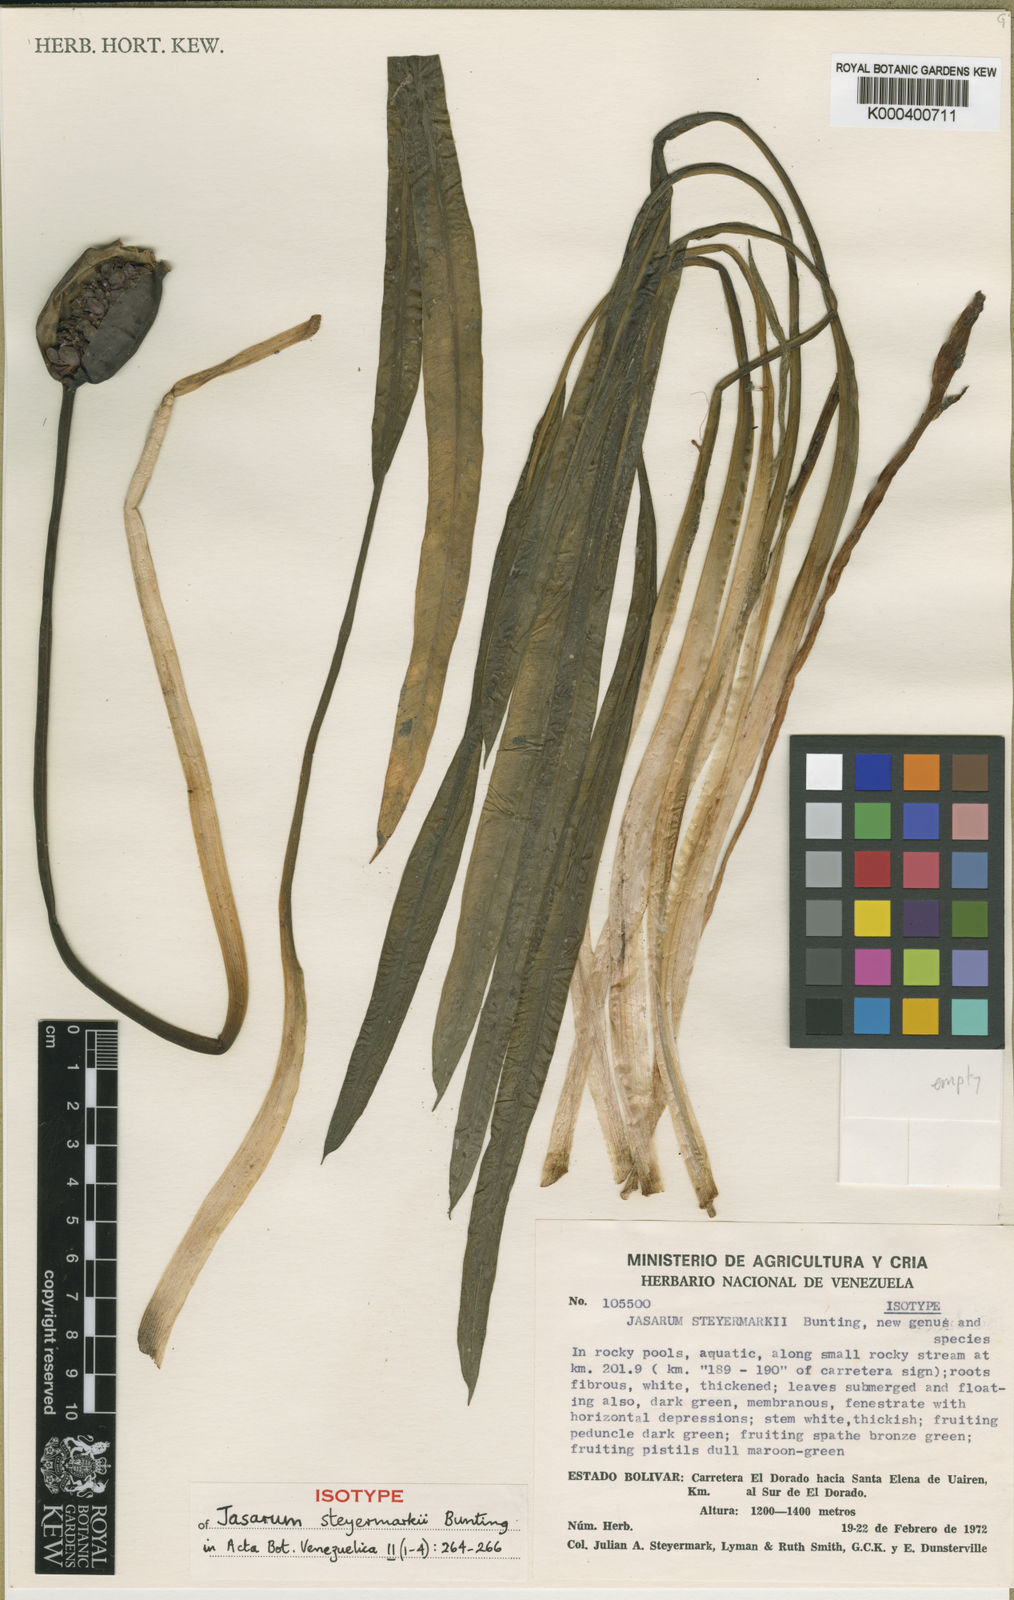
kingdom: Plantae
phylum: Tracheophyta
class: Liliopsida
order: Alismatales
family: Araceae
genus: Jasarum
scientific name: Jasarum steyermarkii
